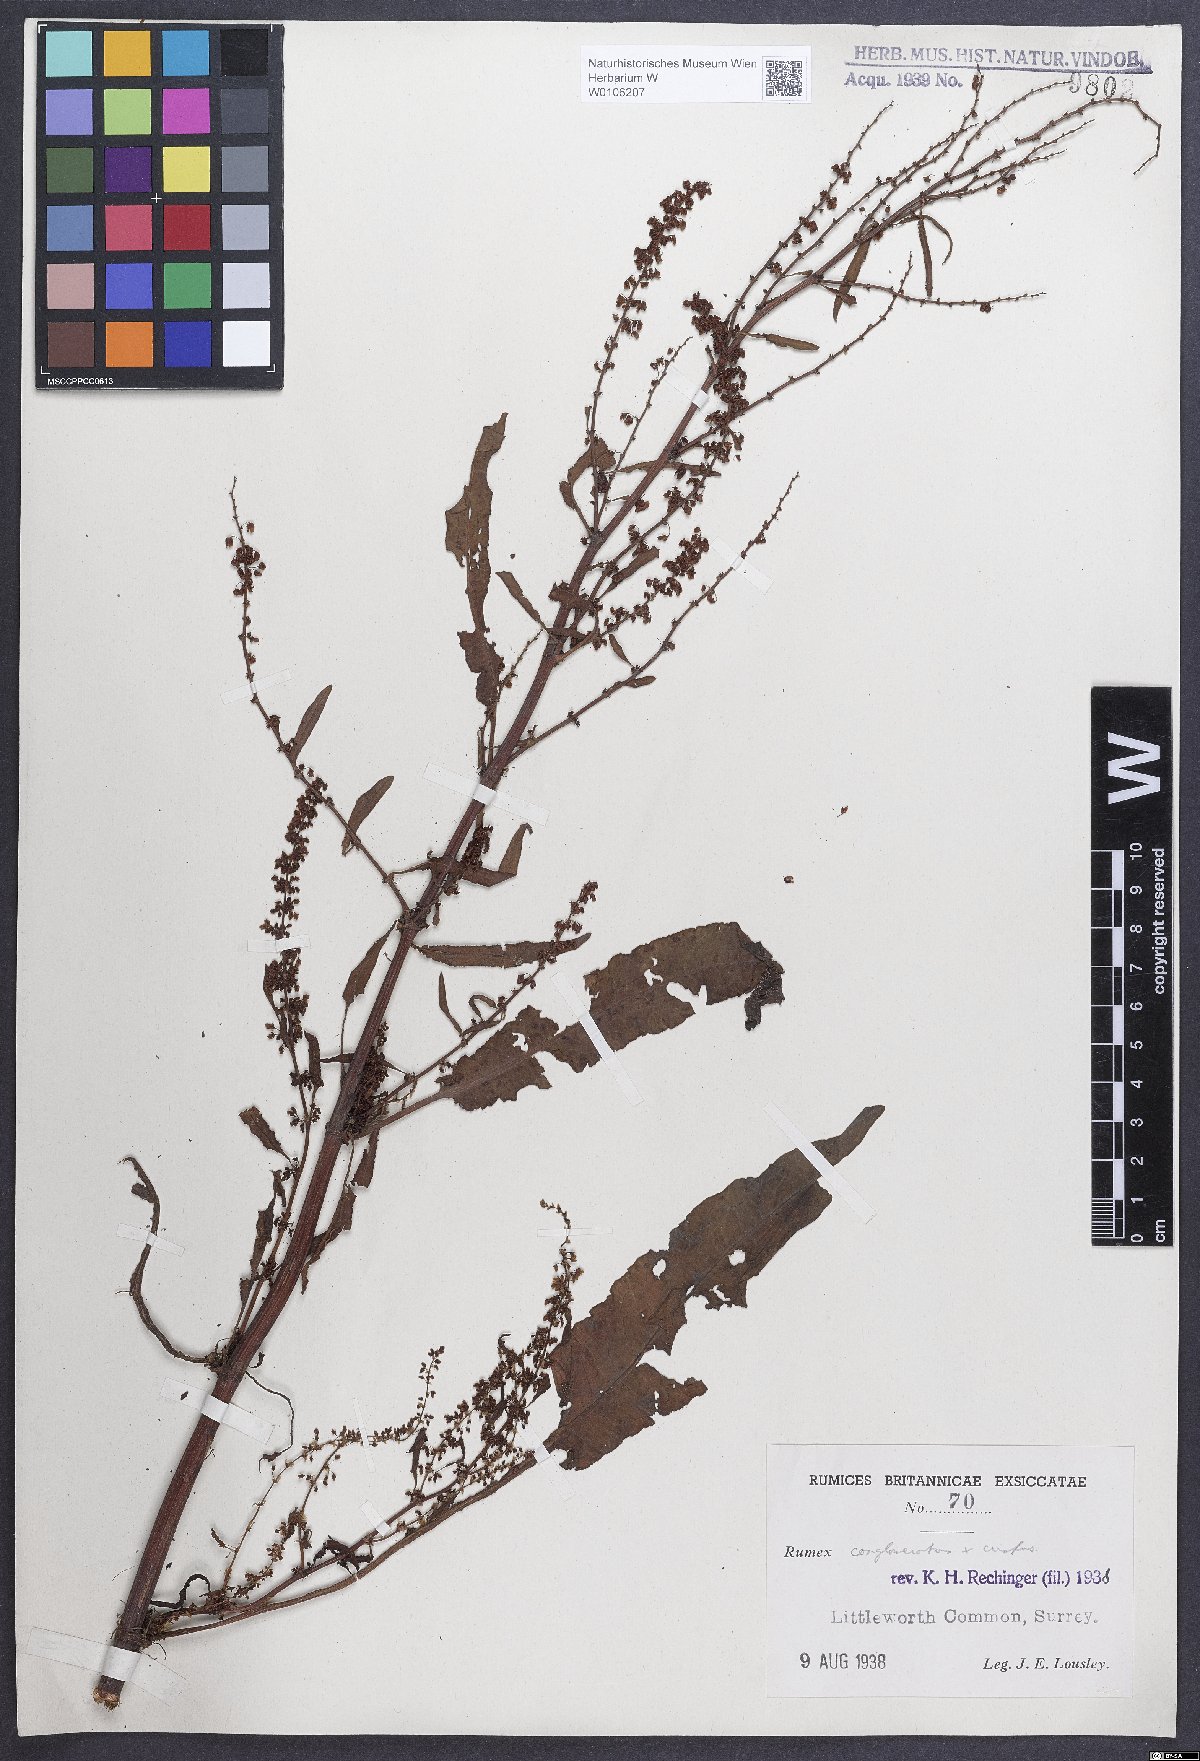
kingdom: Plantae
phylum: Tracheophyta
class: Magnoliopsida
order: Caryophyllales
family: Polygonaceae
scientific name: Polygonaceae
